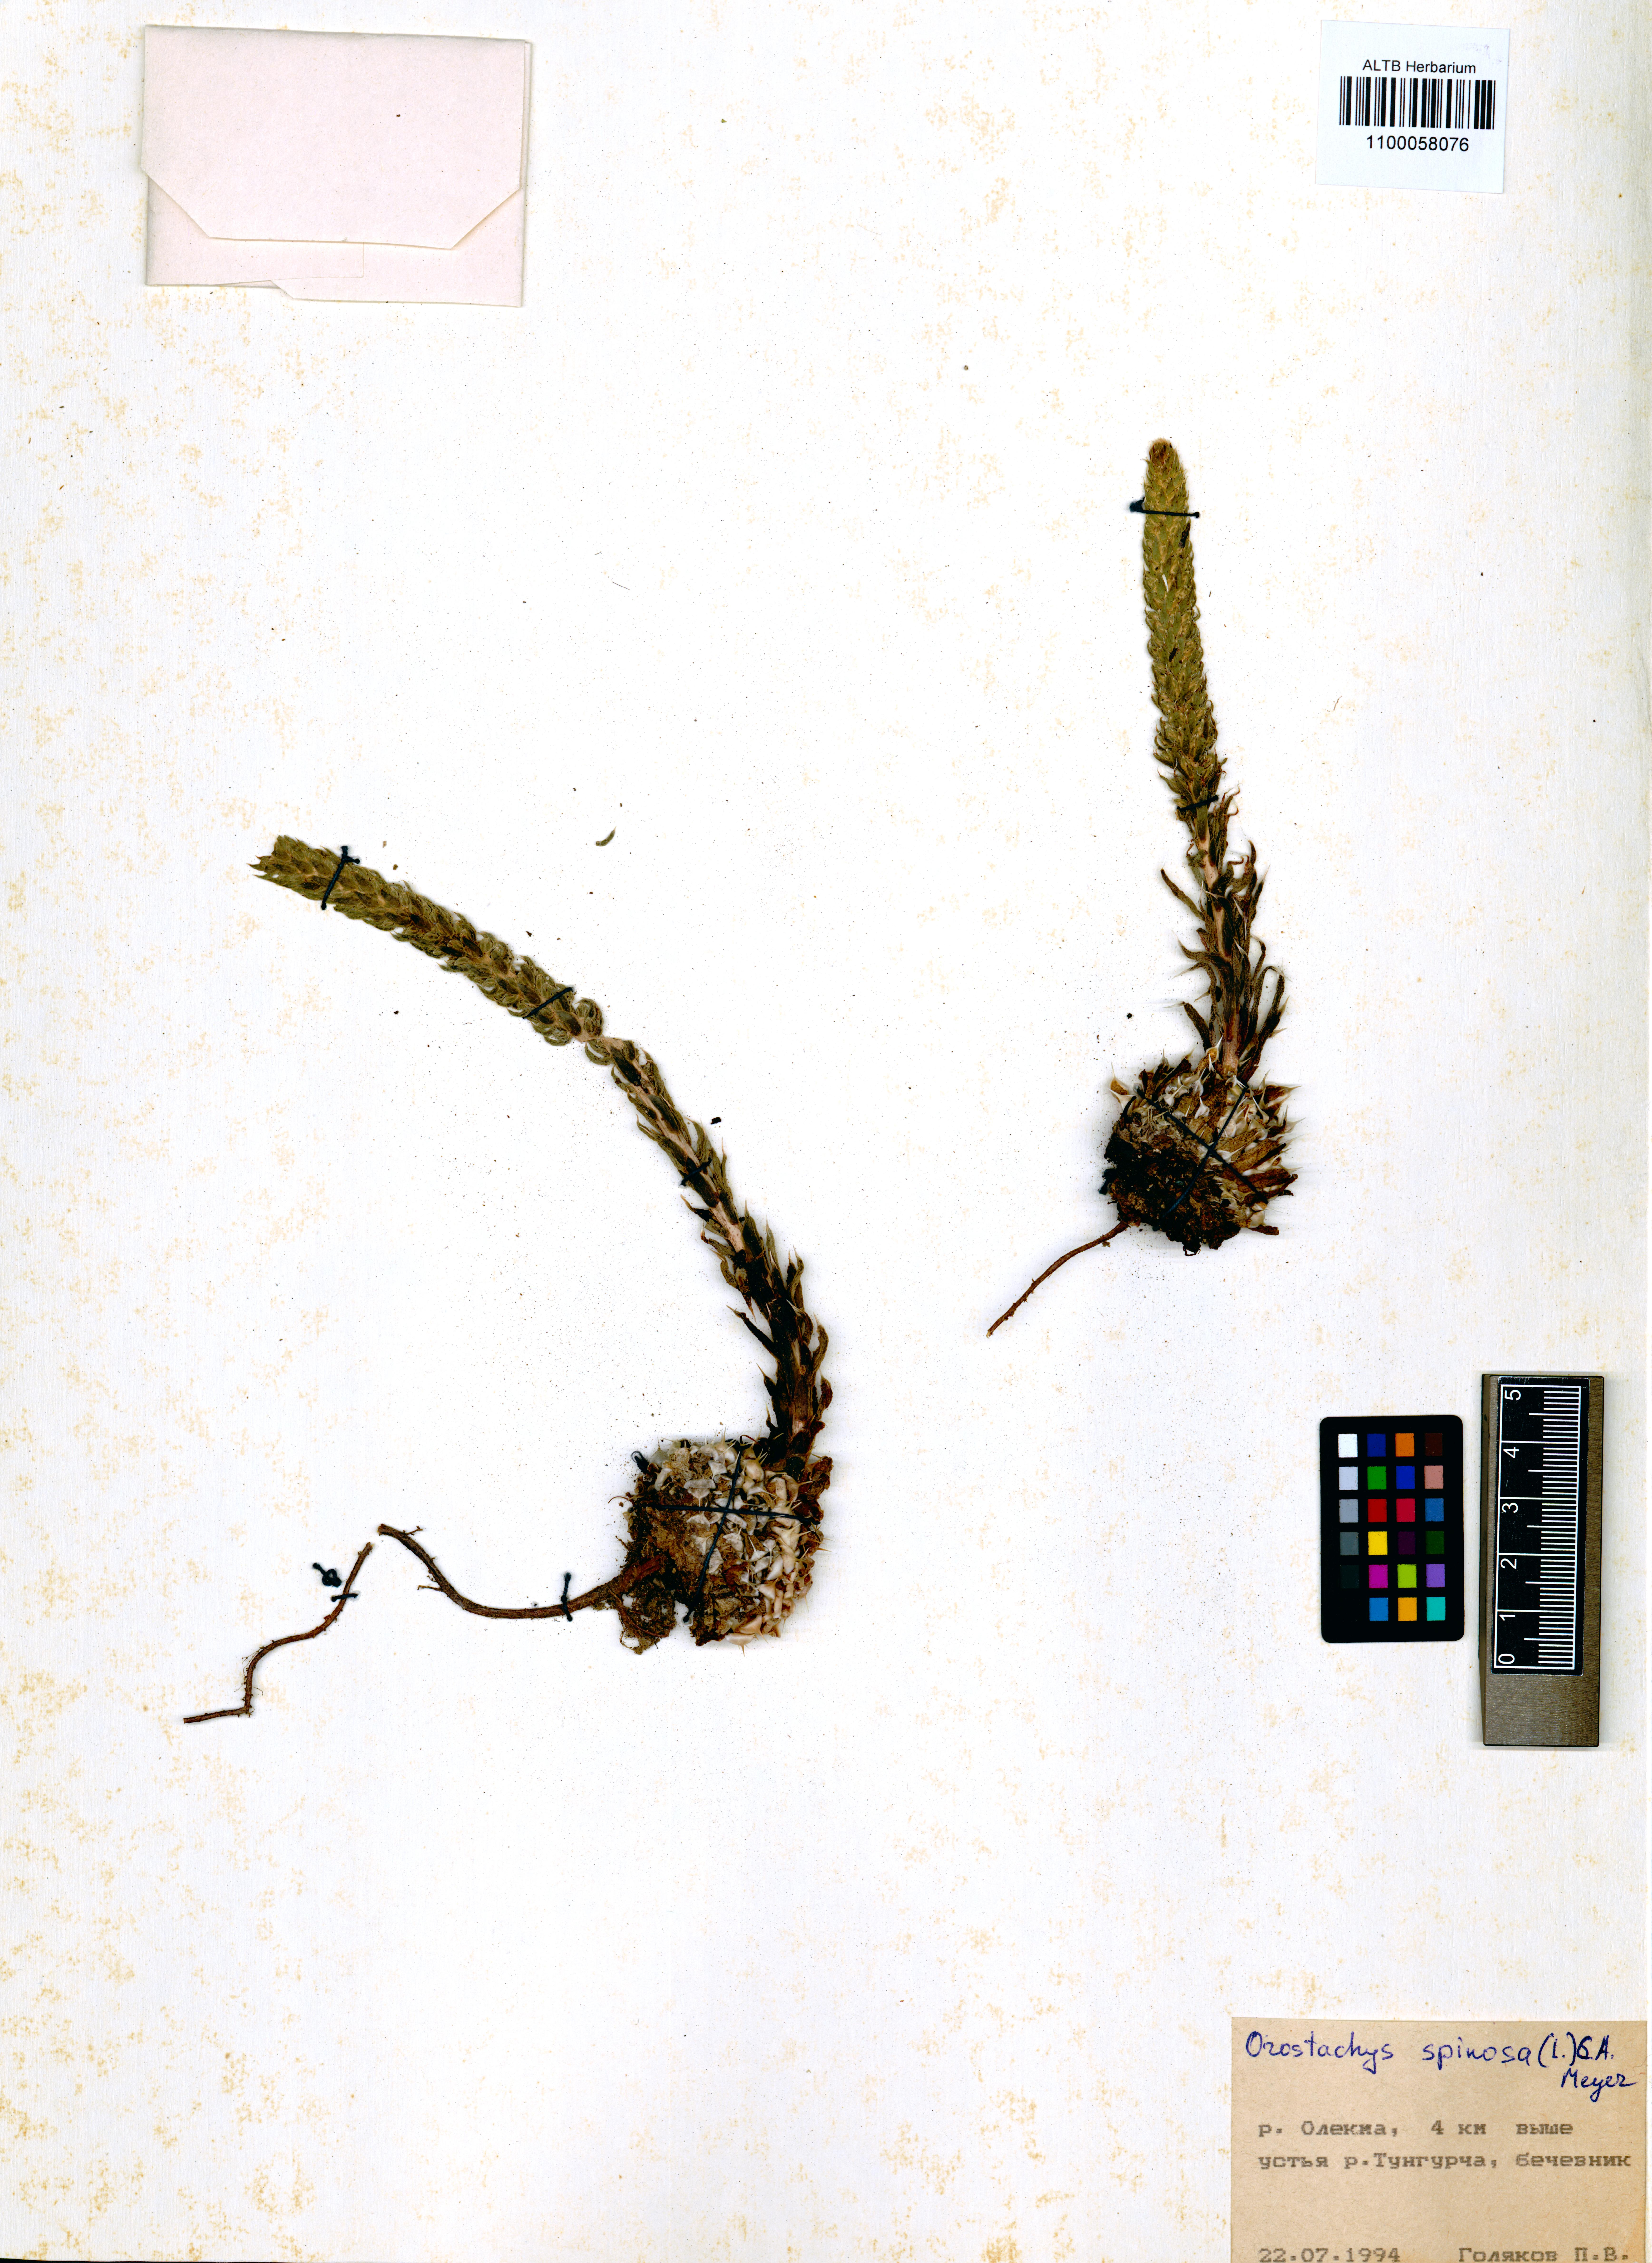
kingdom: Plantae
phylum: Tracheophyta
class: Magnoliopsida
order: Saxifragales
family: Crassulaceae
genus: Orostachys
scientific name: Orostachys spinosa
